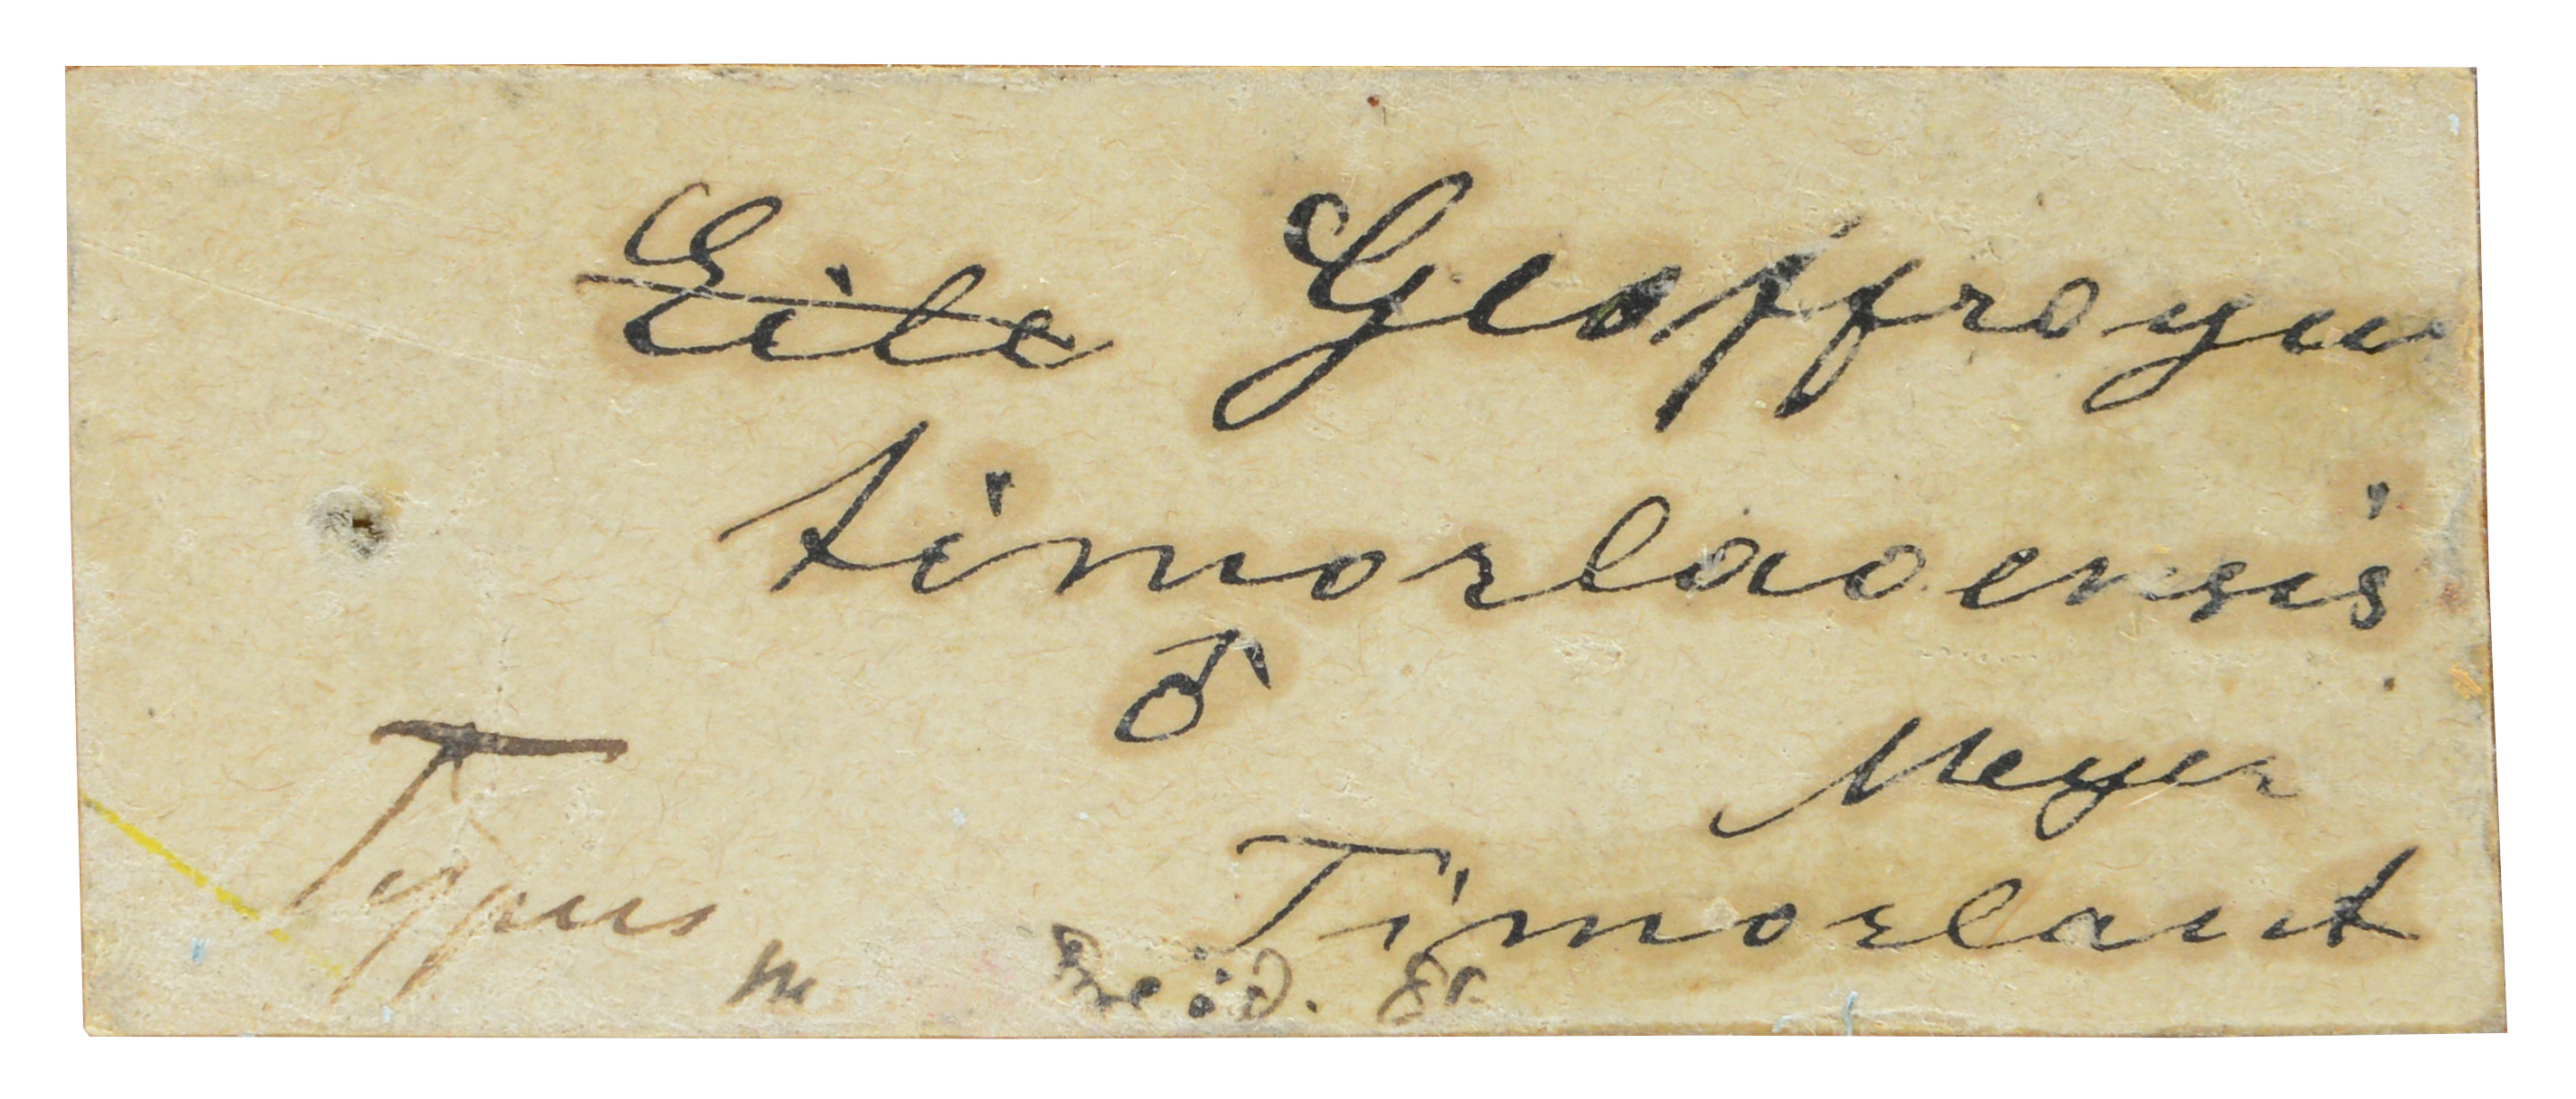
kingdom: Animalia
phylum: Chordata
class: Aves
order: Psittaciformes
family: Psittacidae
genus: Geoffroyus
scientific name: Geoffroyus geoffroyi
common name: Red-cheeked parrot
